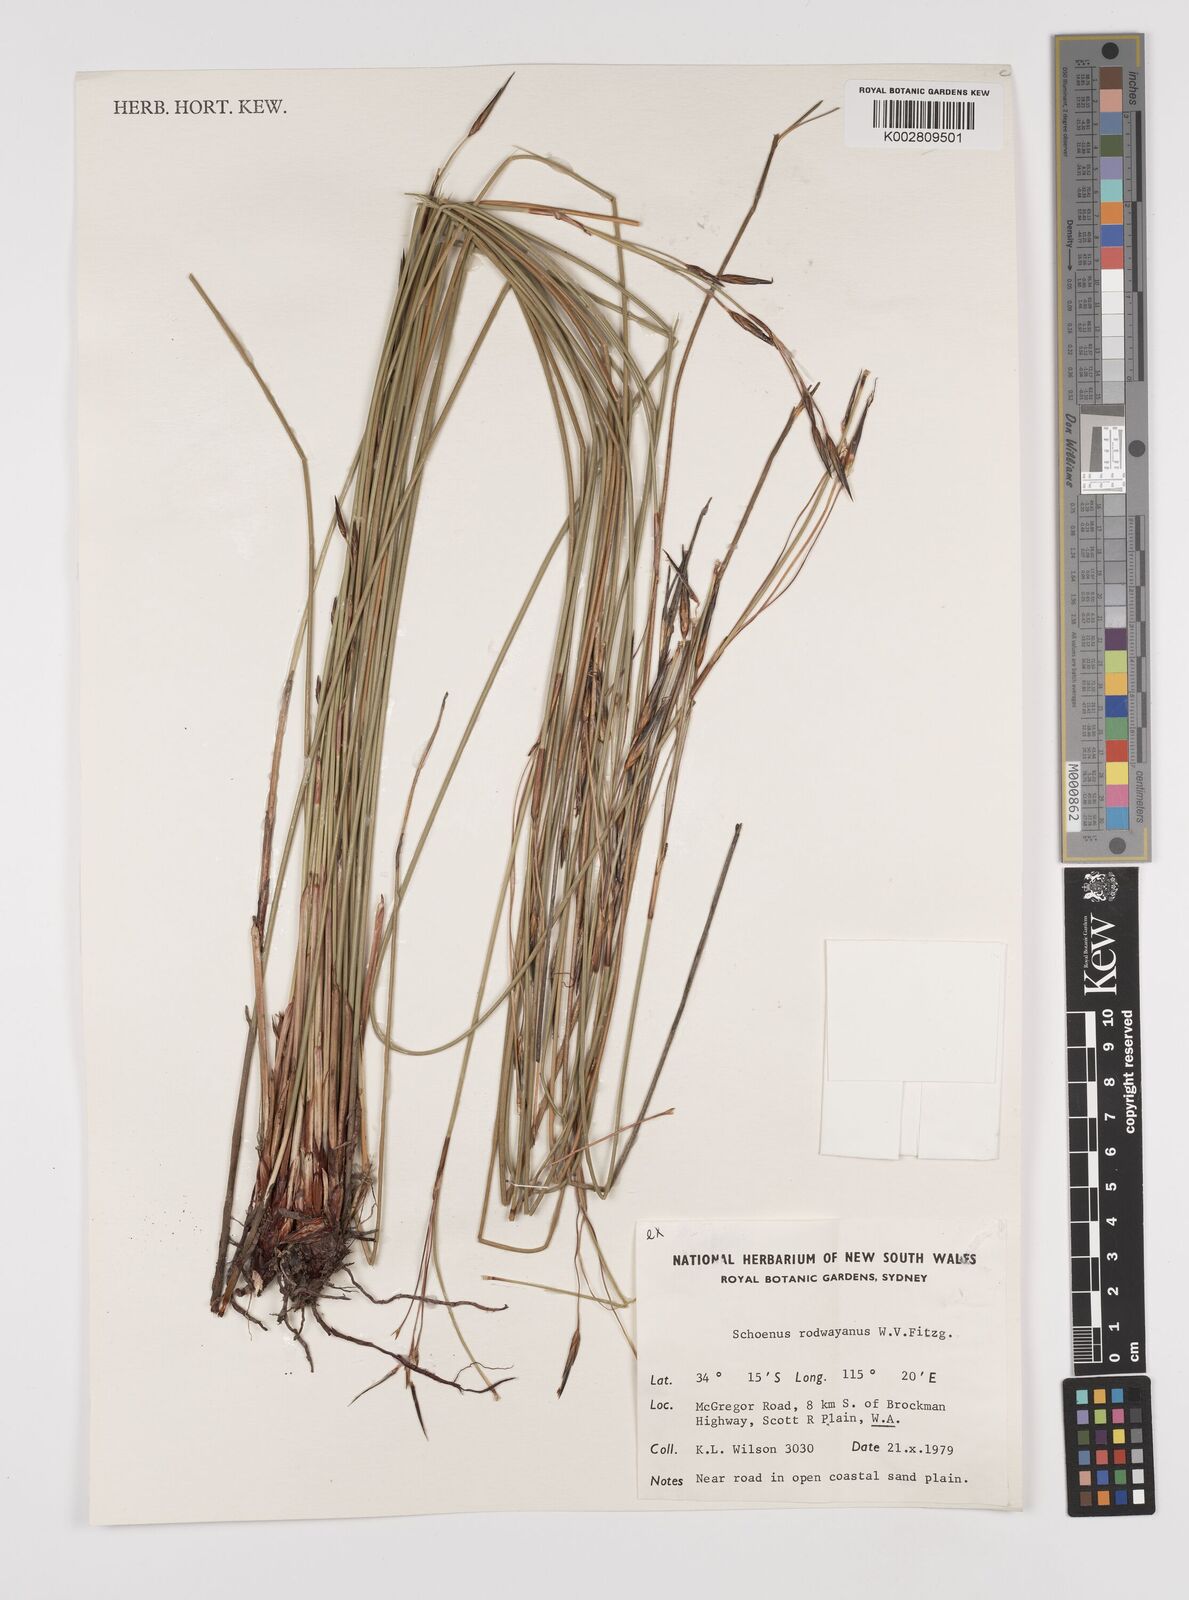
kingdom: Plantae
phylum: Tracheophyta
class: Liliopsida
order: Poales
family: Cyperaceae
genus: Schoenus
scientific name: Schoenus rodwayanus
